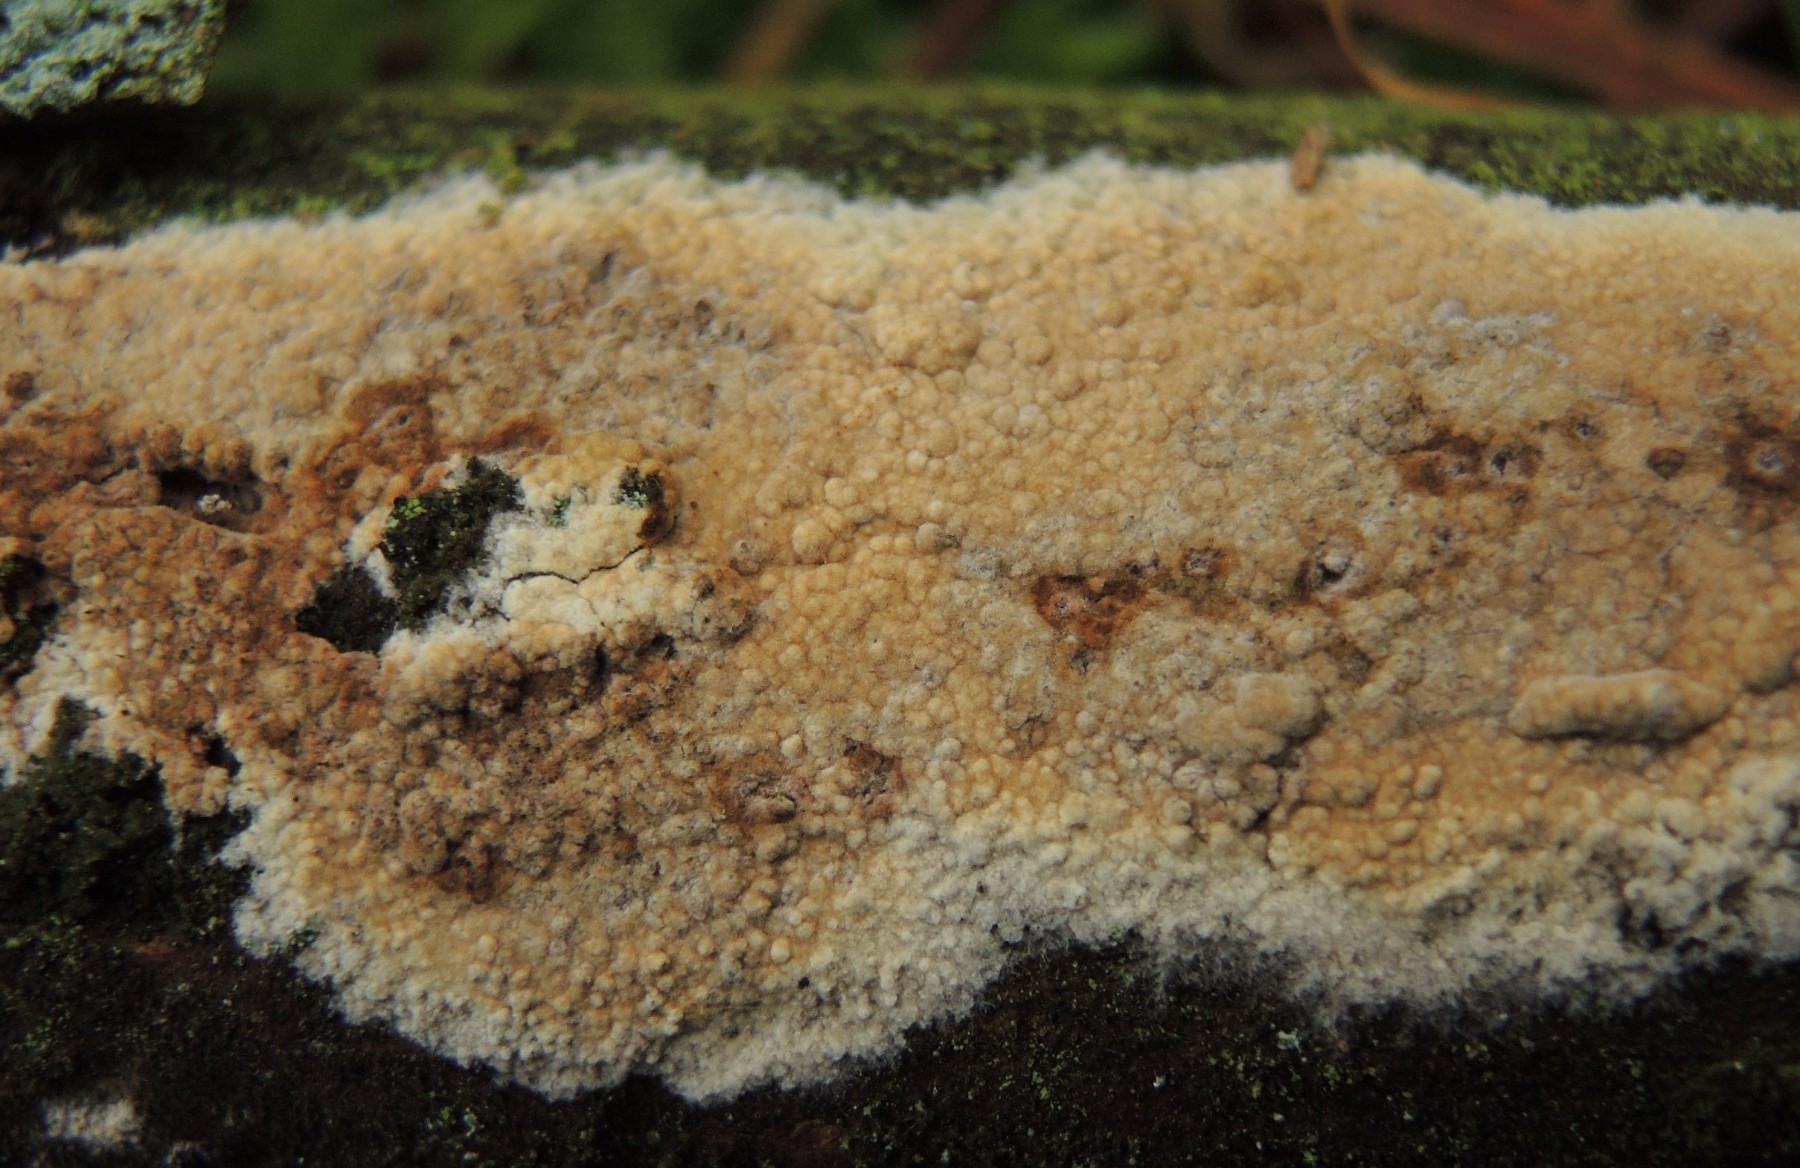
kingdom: Fungi
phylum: Basidiomycota
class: Agaricomycetes
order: Boletales
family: Coniophoraceae
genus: Coniophora
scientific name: Coniophora puteana
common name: gul tømmersvamp
